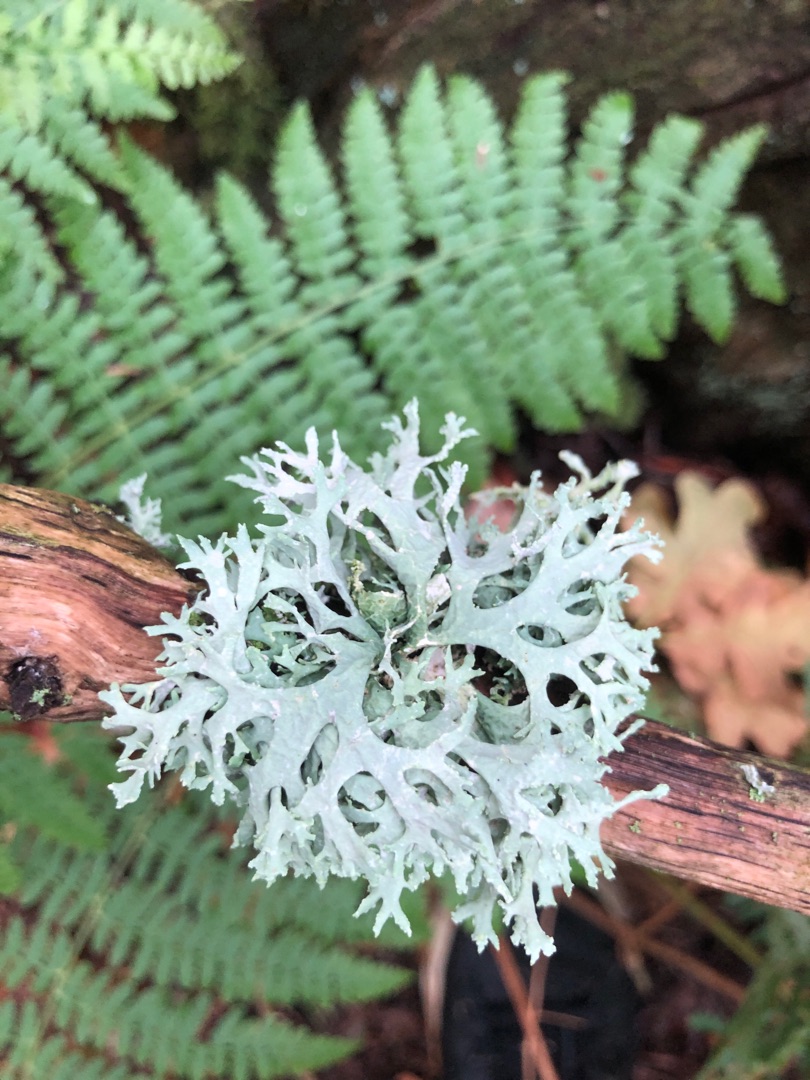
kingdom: Fungi
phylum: Ascomycota
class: Lecanoromycetes
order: Lecanorales
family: Parmeliaceae
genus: Evernia
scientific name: Evernia prunastri
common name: Almindelig slåenlav
